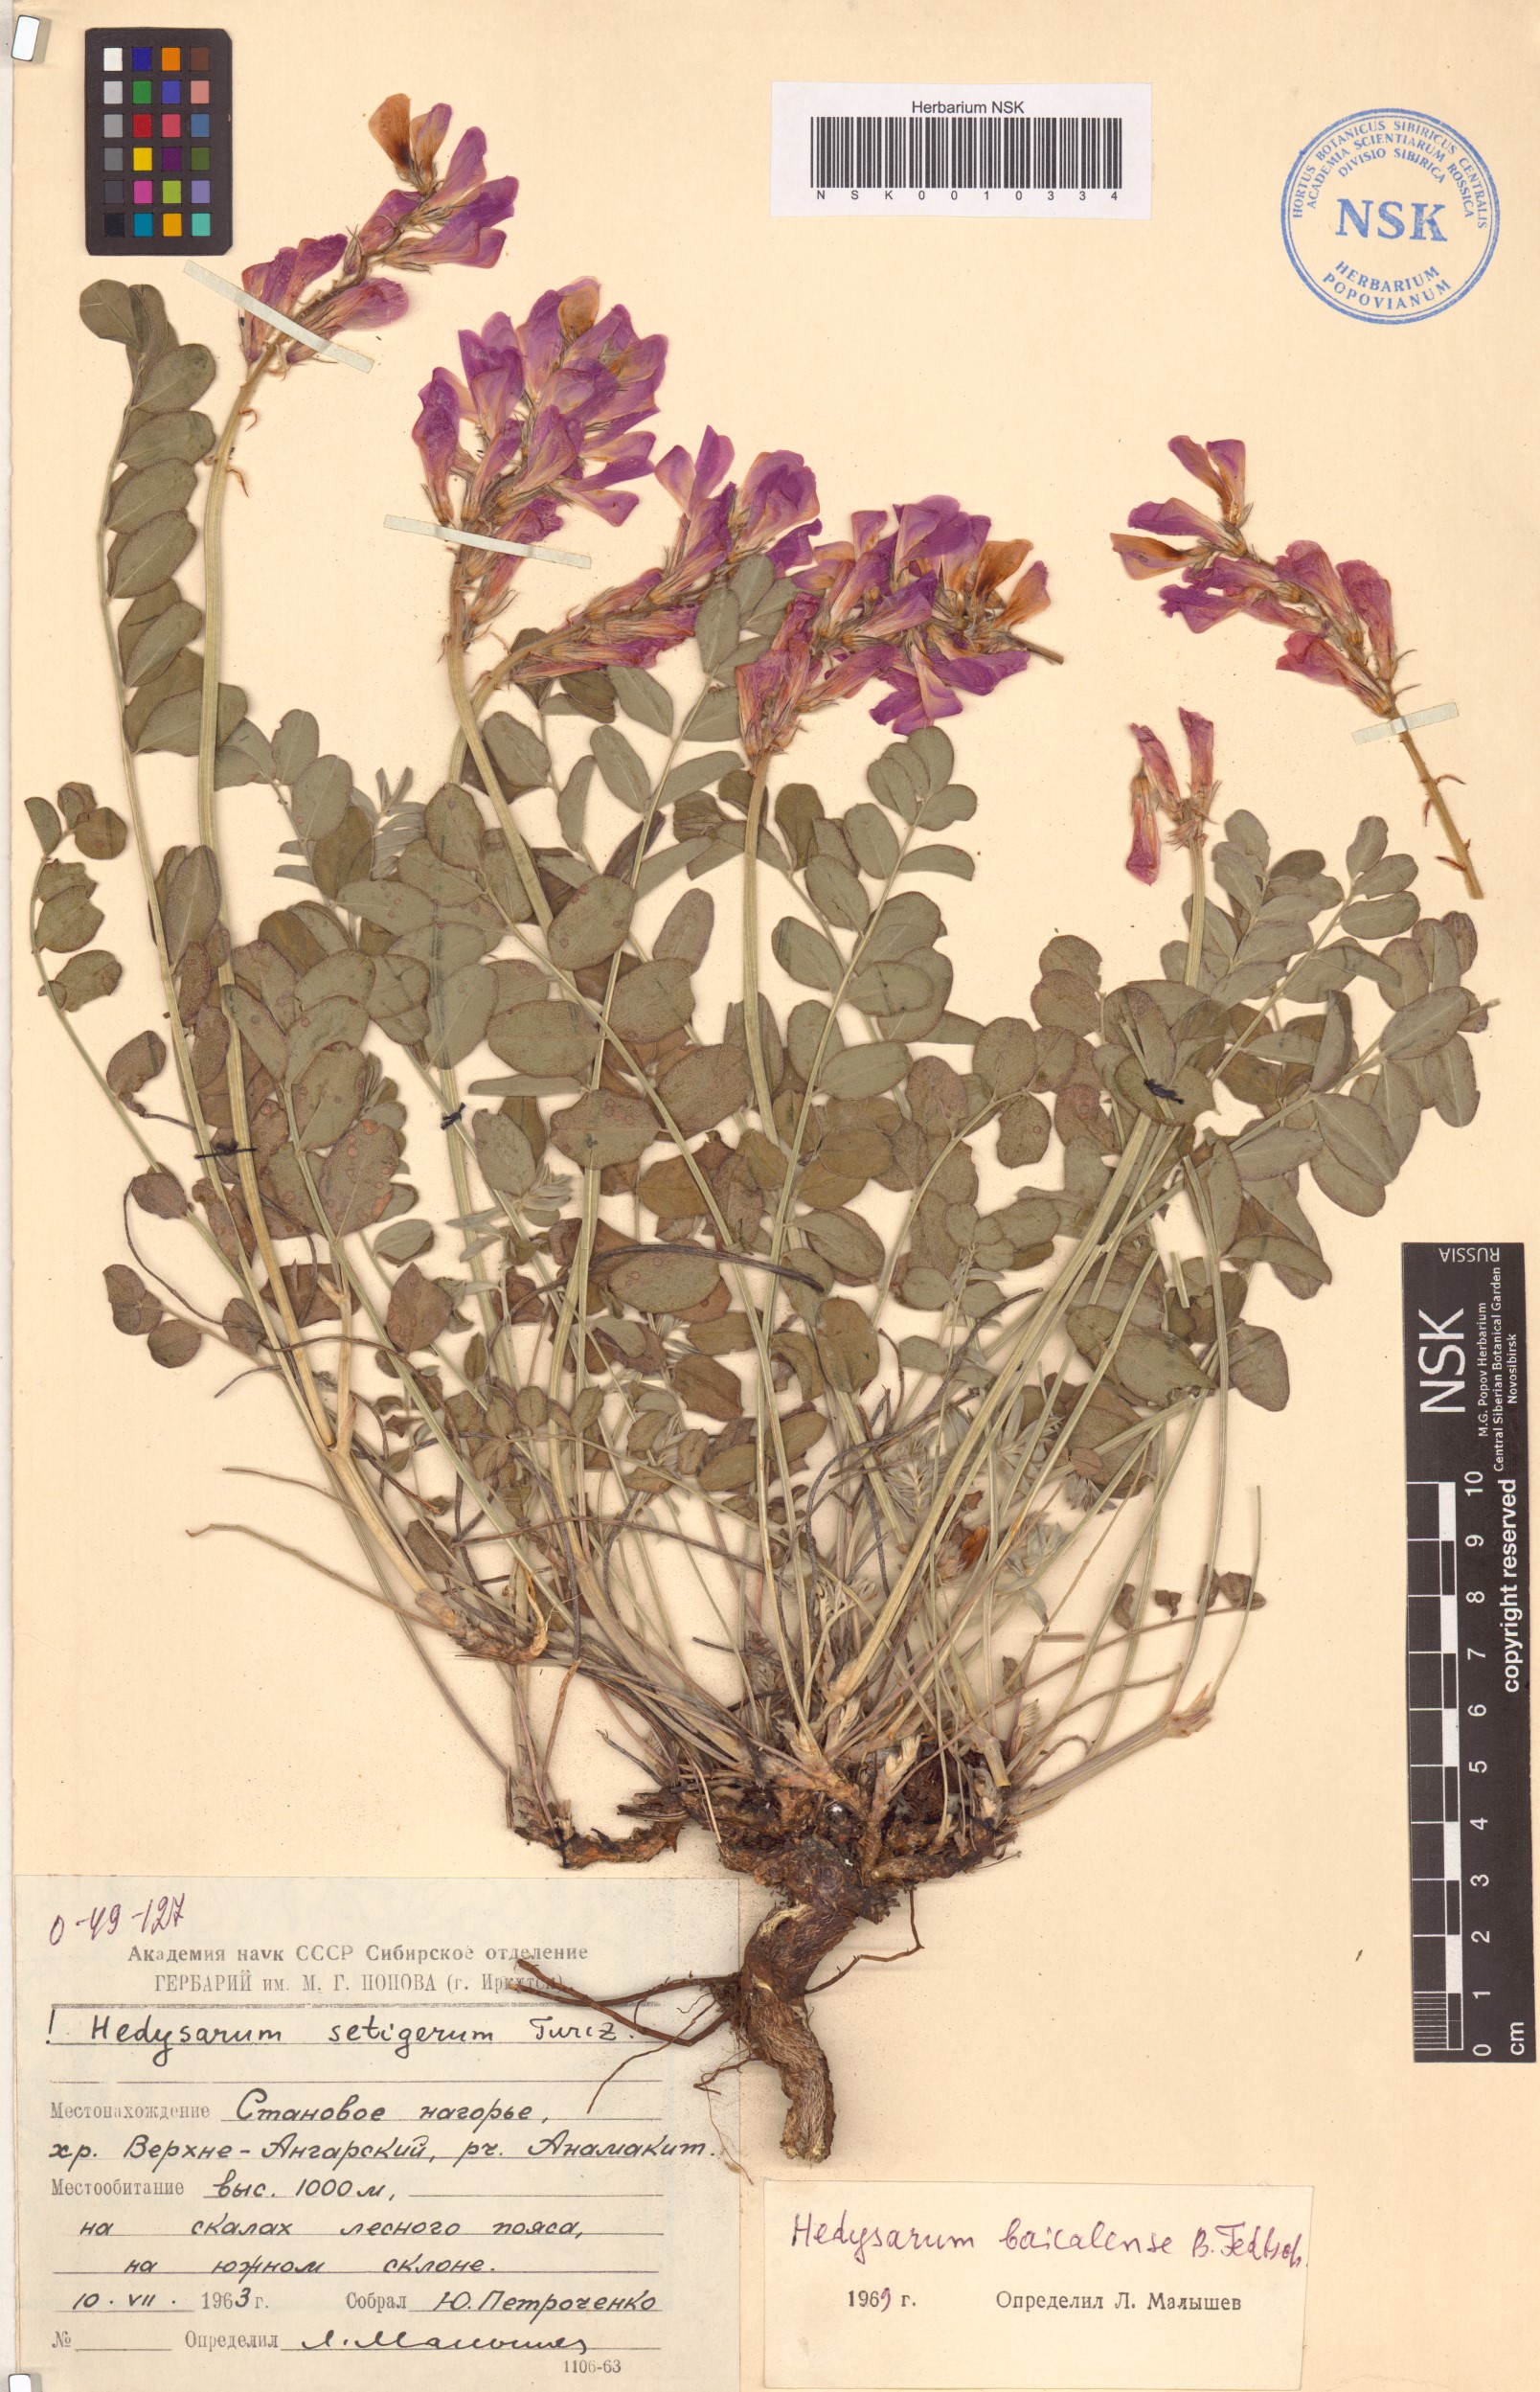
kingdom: Plantae
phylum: Tracheophyta
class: Magnoliopsida
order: Fabales
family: Fabaceae
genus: Hedysarum
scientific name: Hedysarum setigerum
